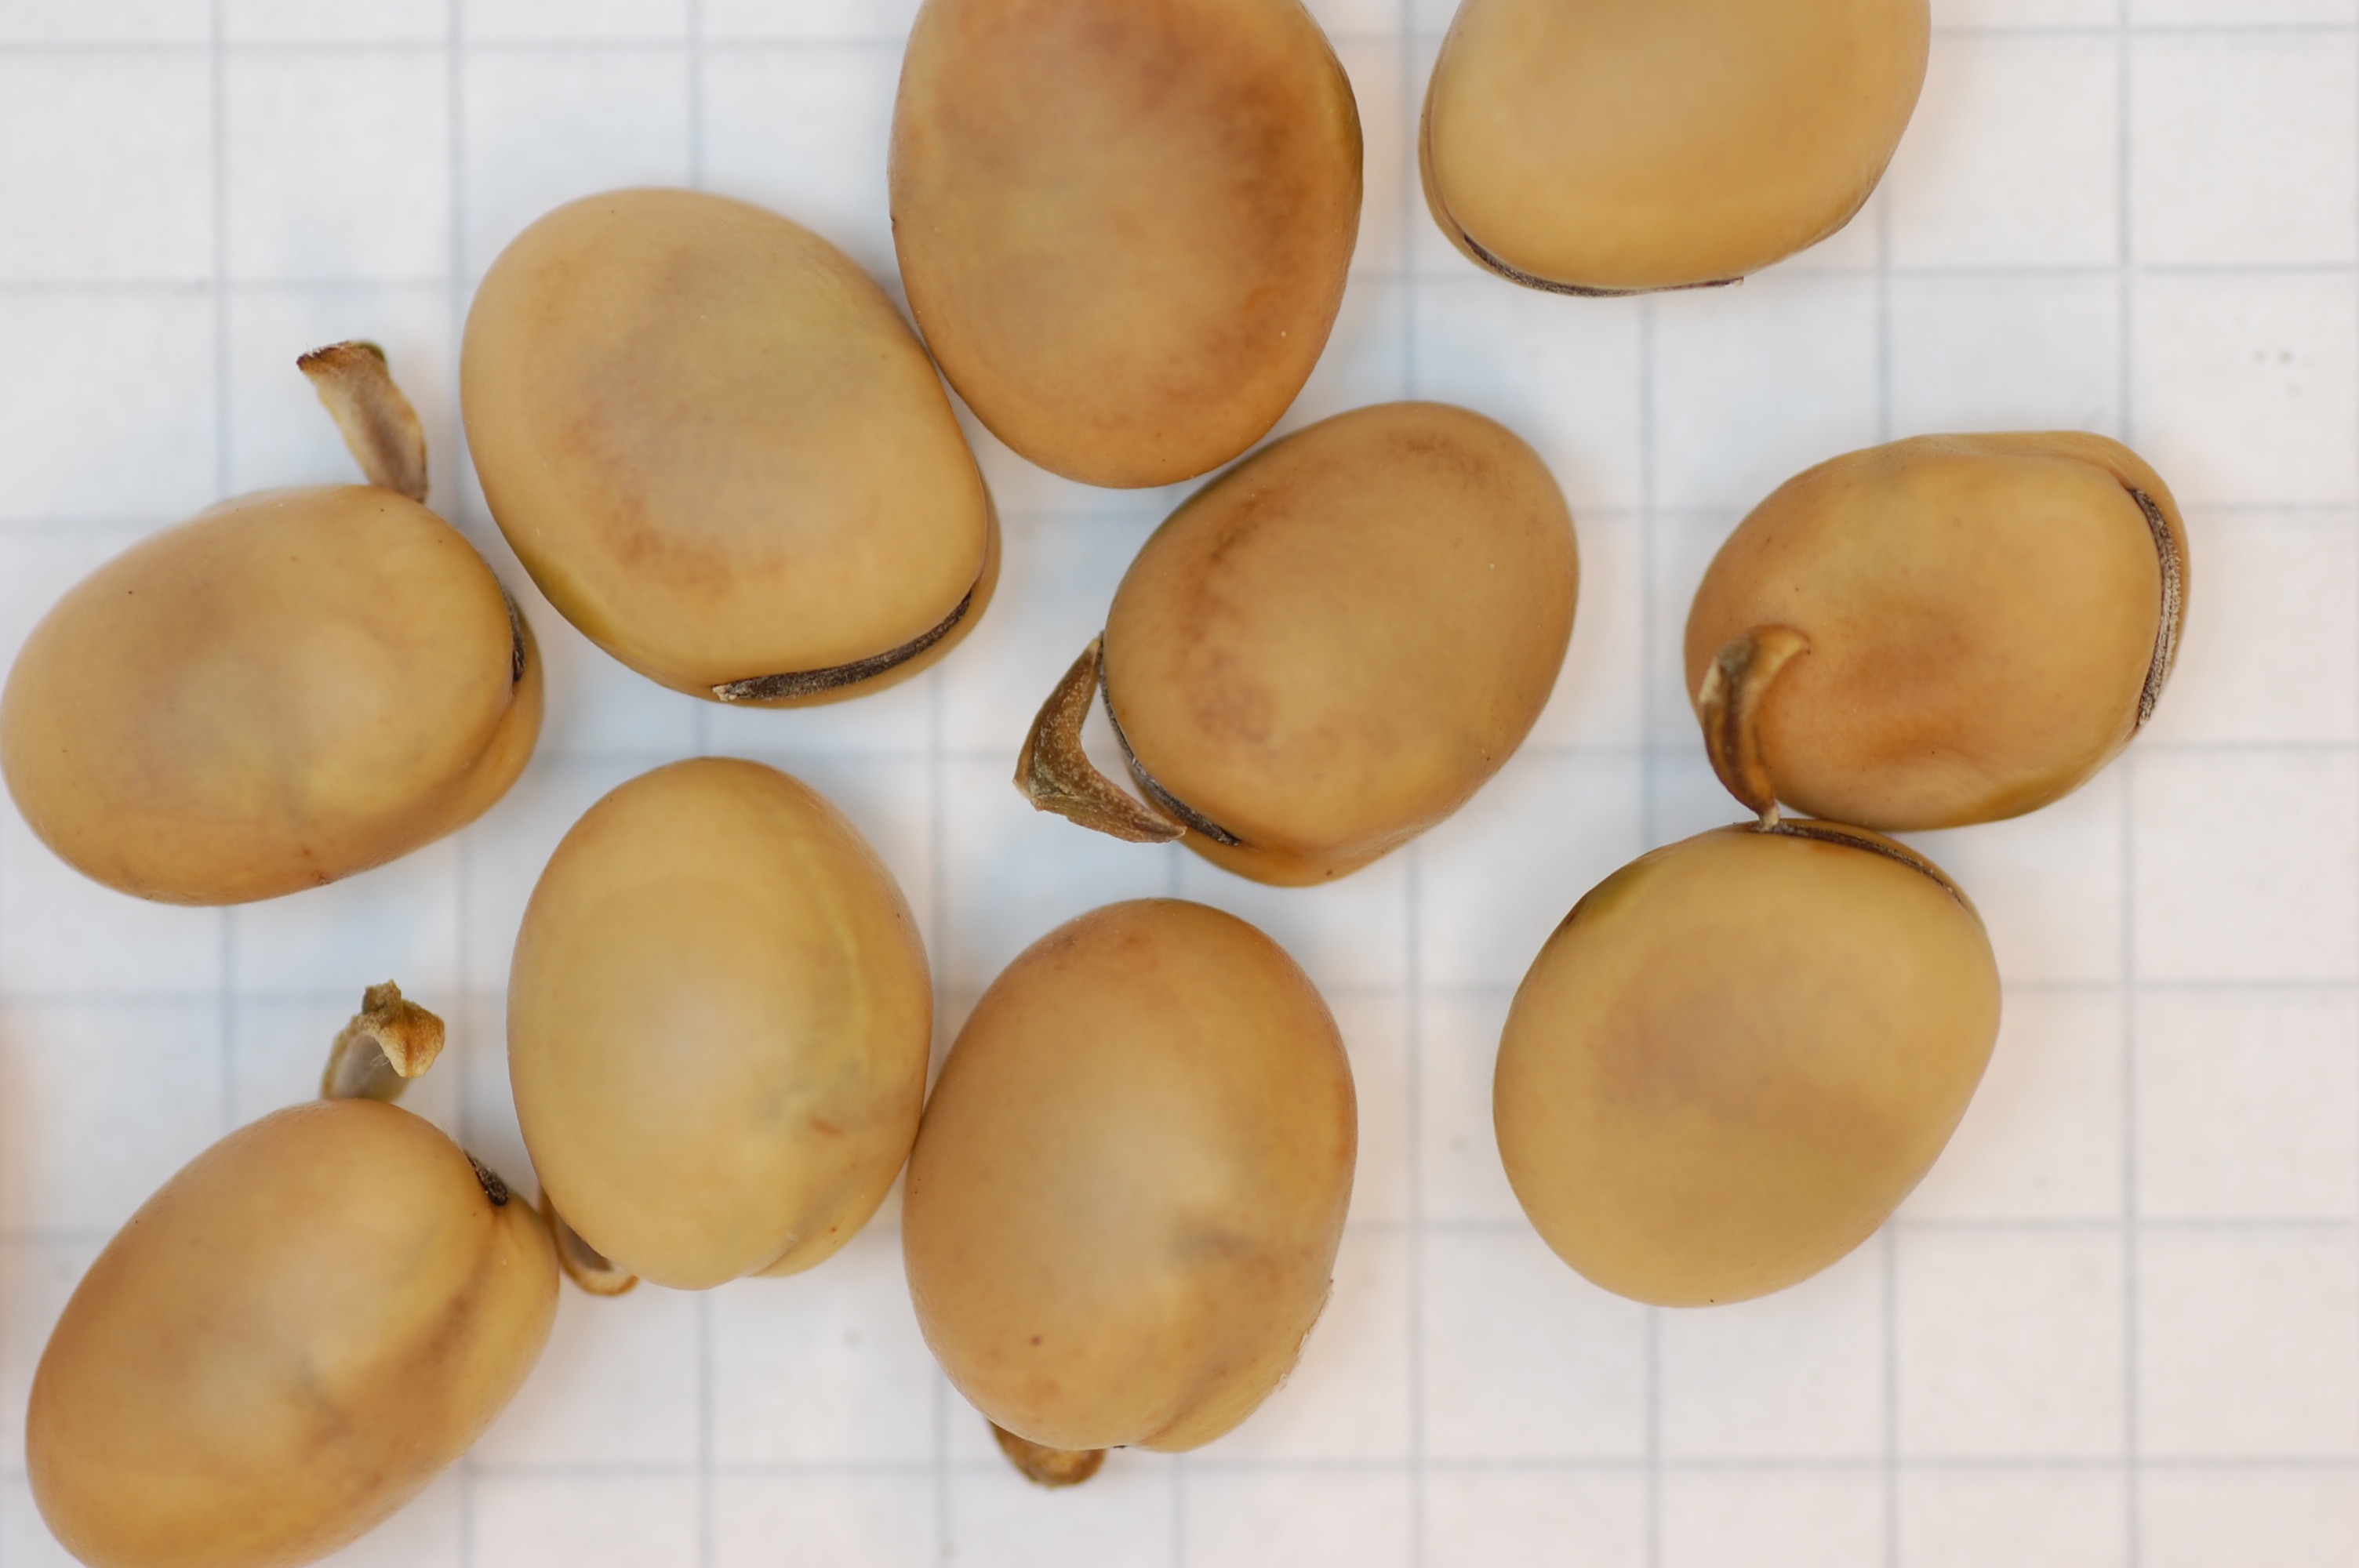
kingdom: Plantae
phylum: Tracheophyta
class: Magnoliopsida
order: Fabales
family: Fabaceae
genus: Vicia
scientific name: Vicia faba
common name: Broad bean
